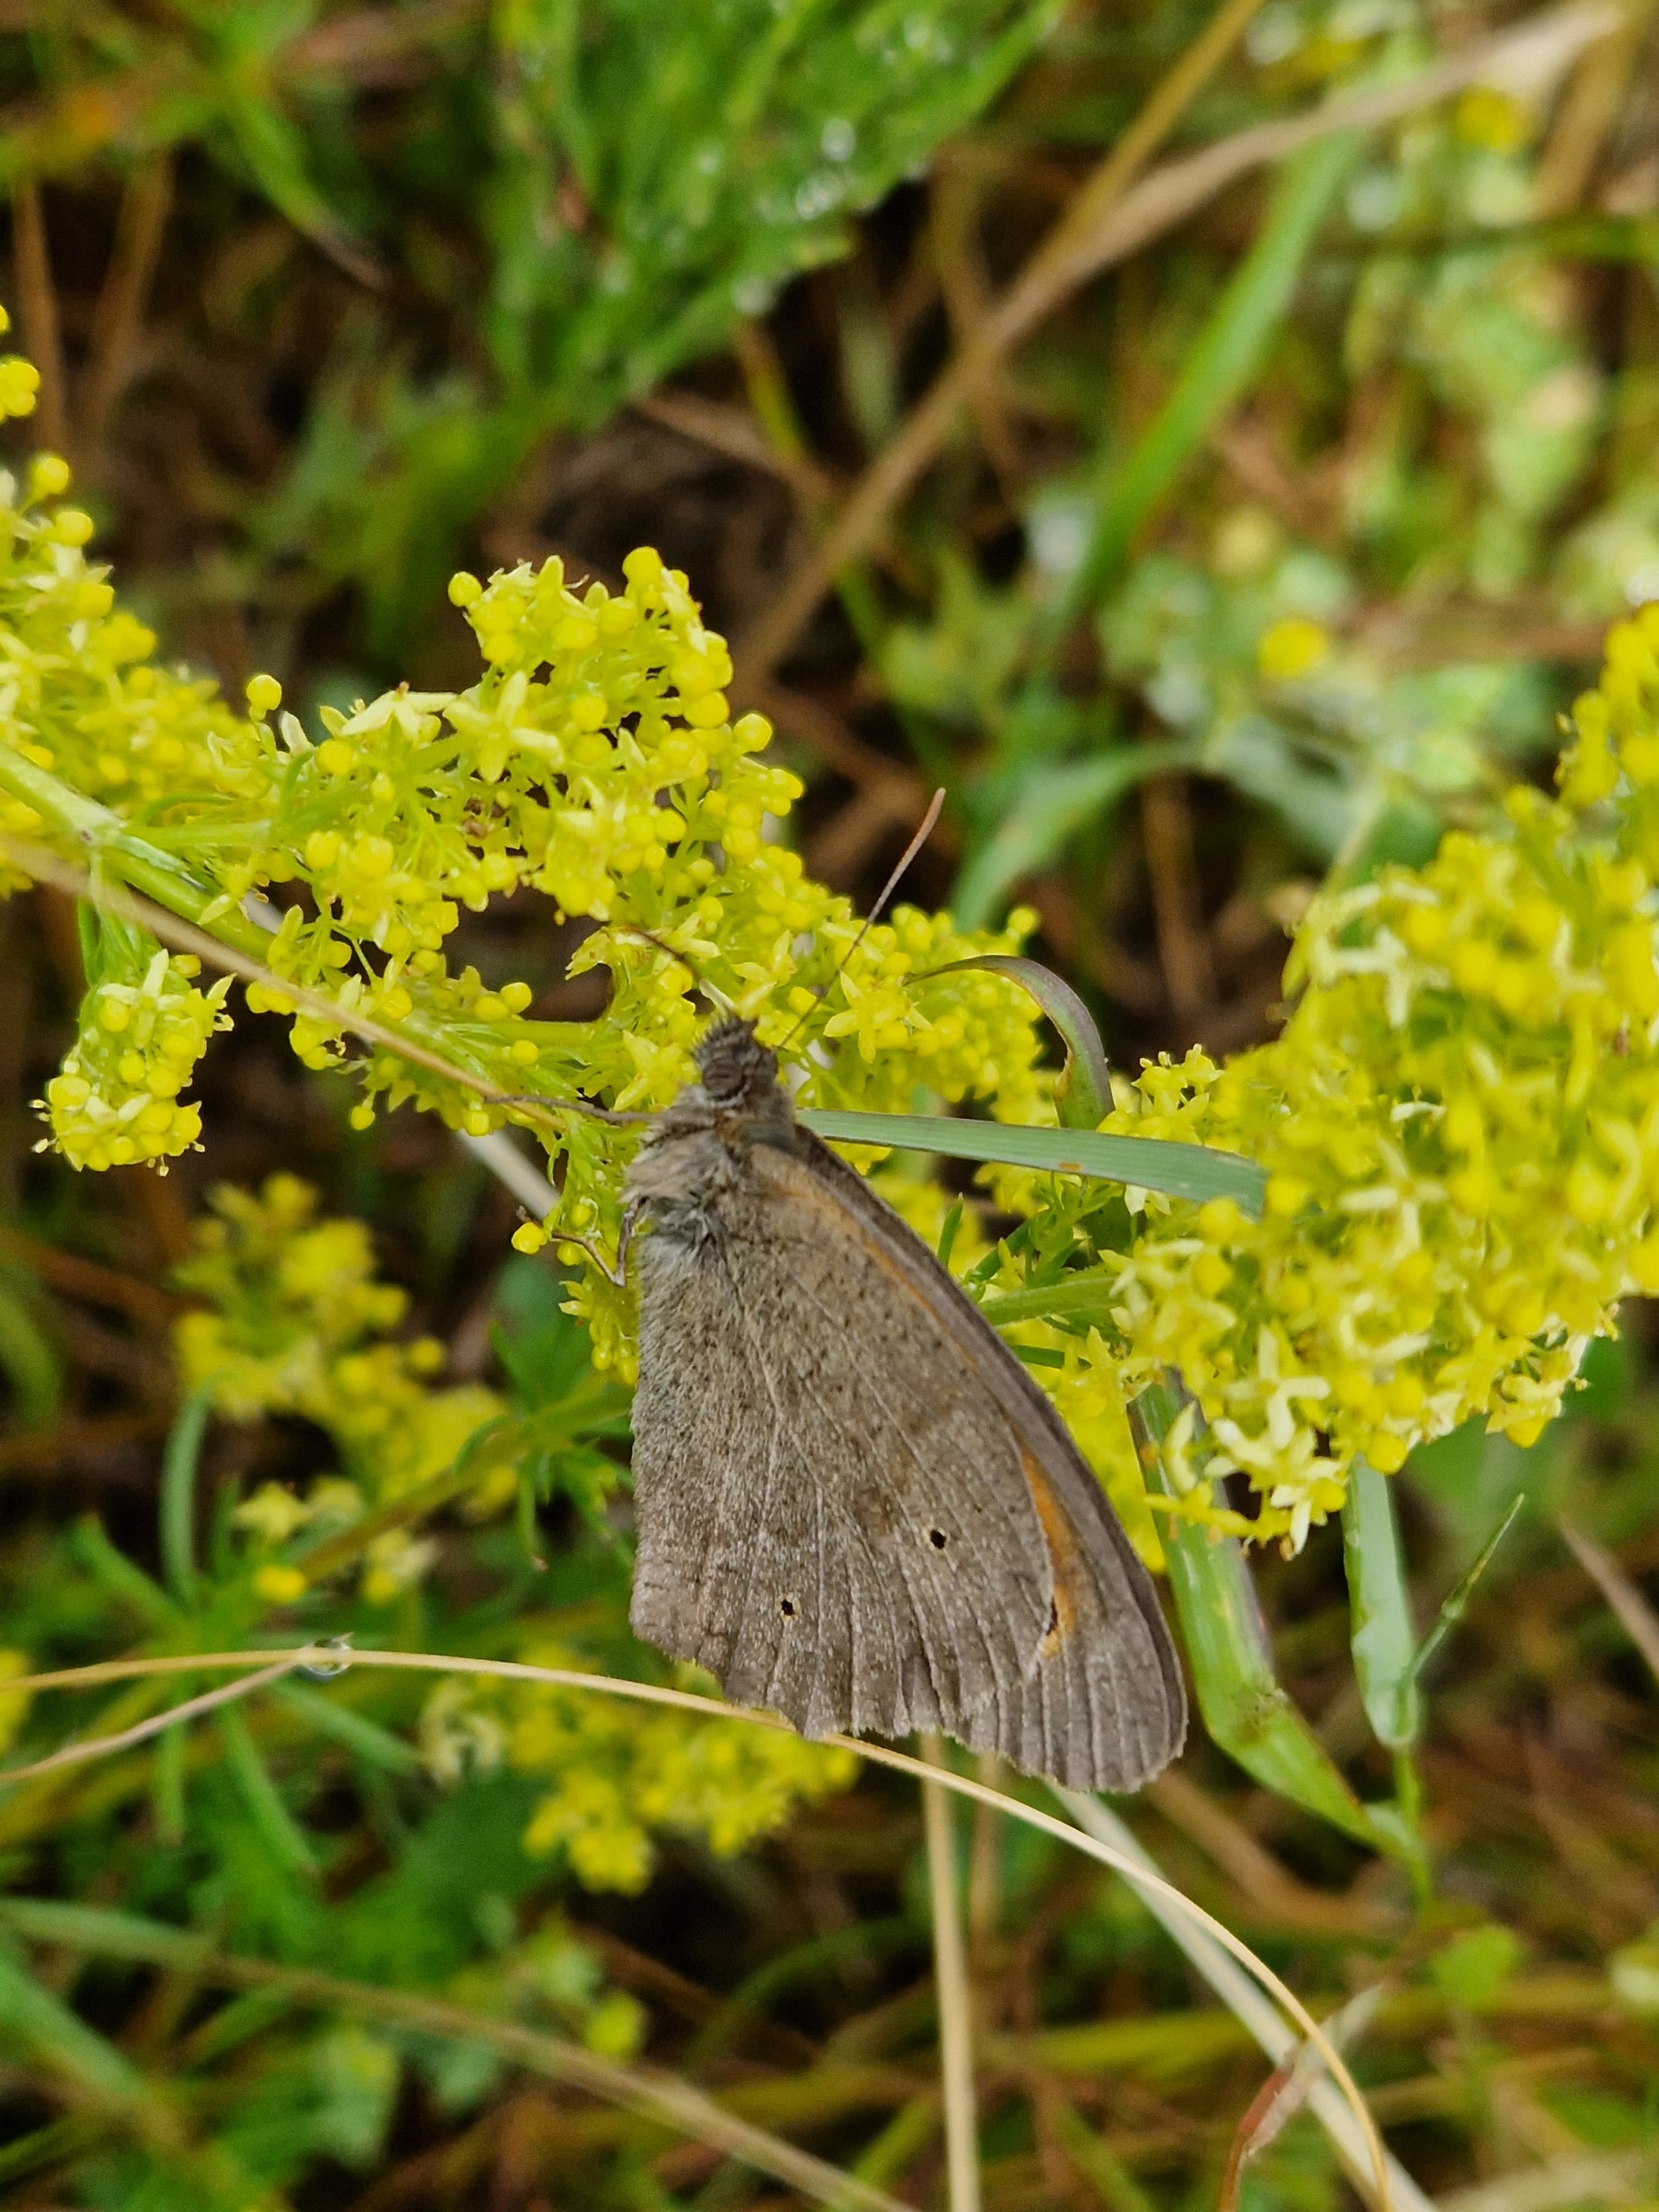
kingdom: Animalia
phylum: Arthropoda
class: Insecta
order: Lepidoptera
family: Nymphalidae
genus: Maniola
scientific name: Maniola jurtina
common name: Græsrandøje
